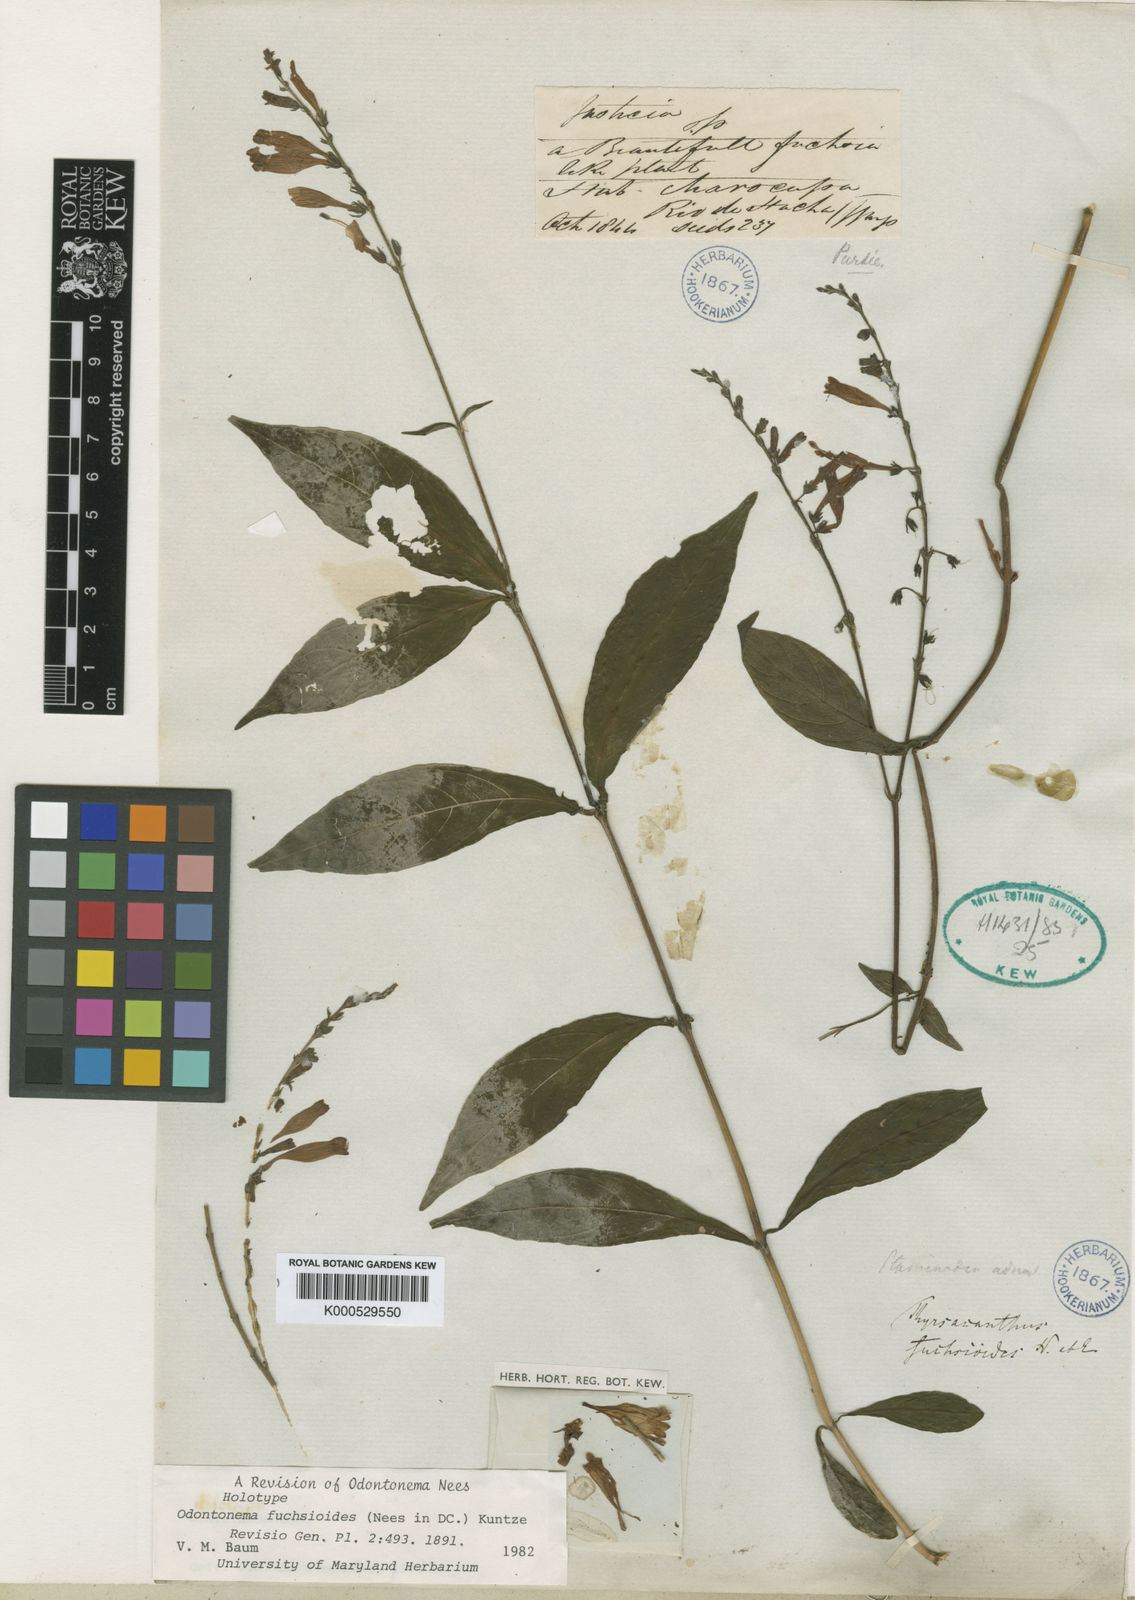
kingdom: Plantae
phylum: Tracheophyta
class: Magnoliopsida
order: Lamiales
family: Acanthaceae
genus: Odontonema
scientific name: Odontonema
